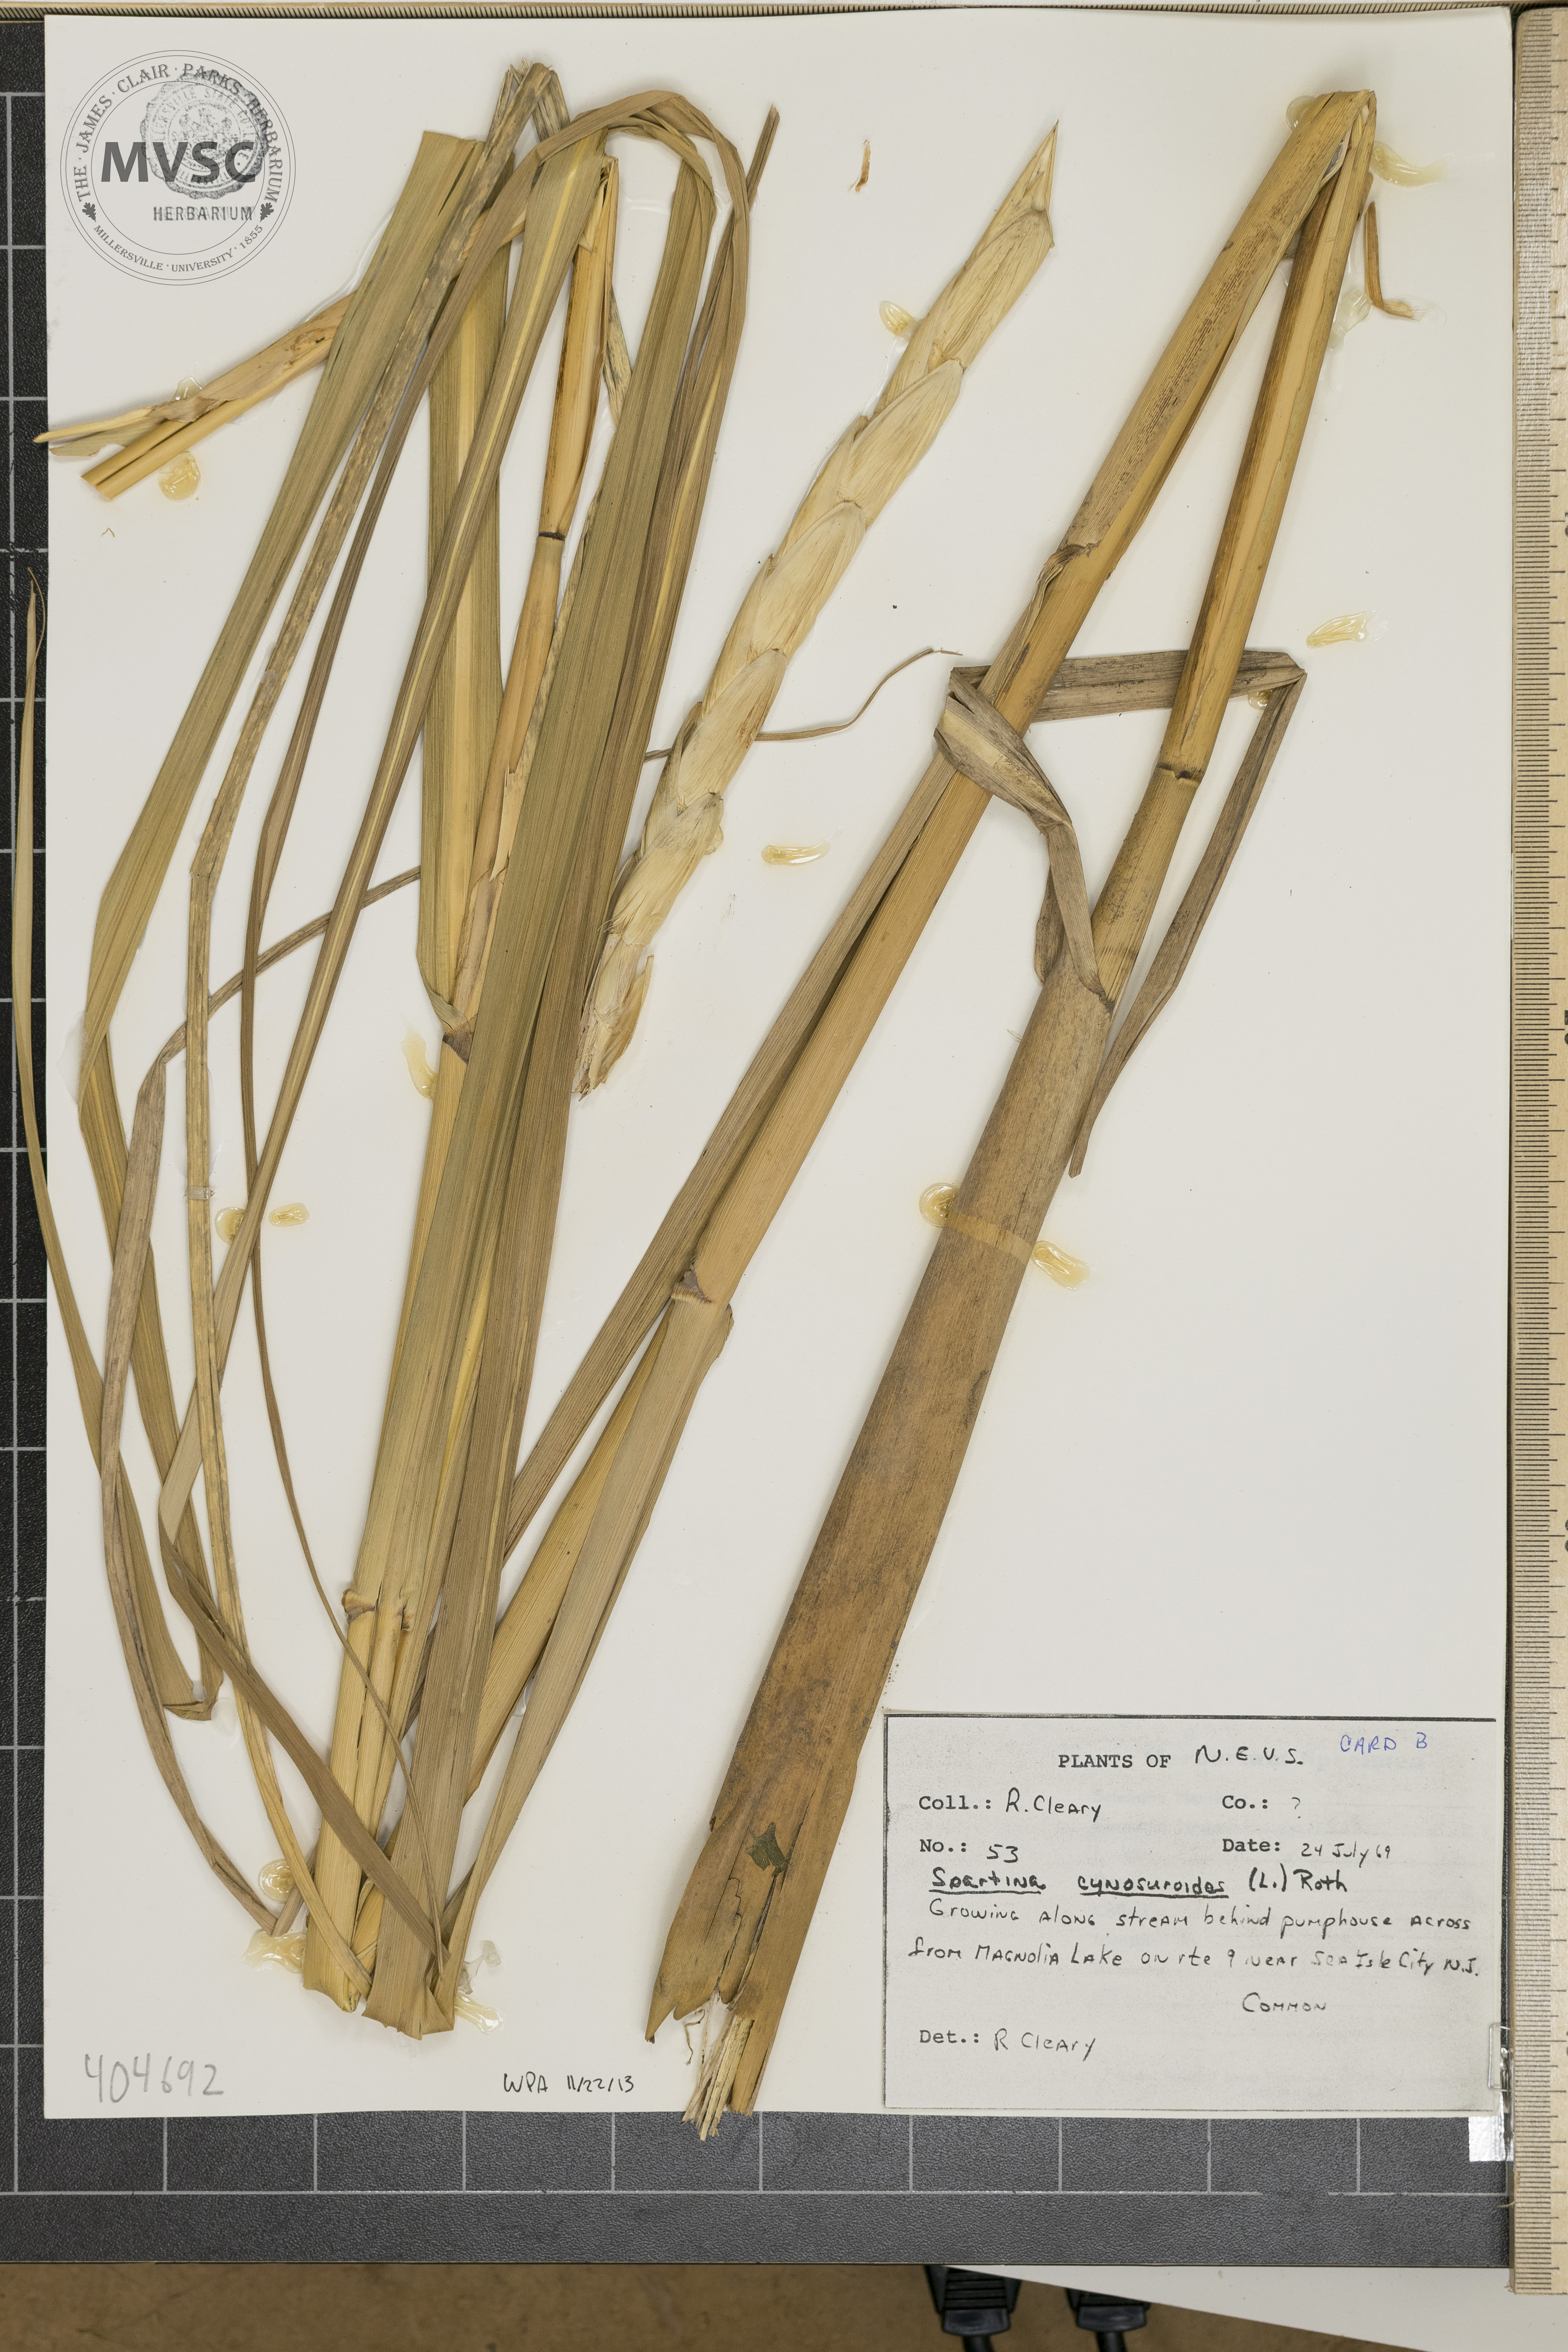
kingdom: Plantae
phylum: Tracheophyta
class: Liliopsida
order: Poales
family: Poaceae
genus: Sporobolus
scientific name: Sporobolus cynosuroides
